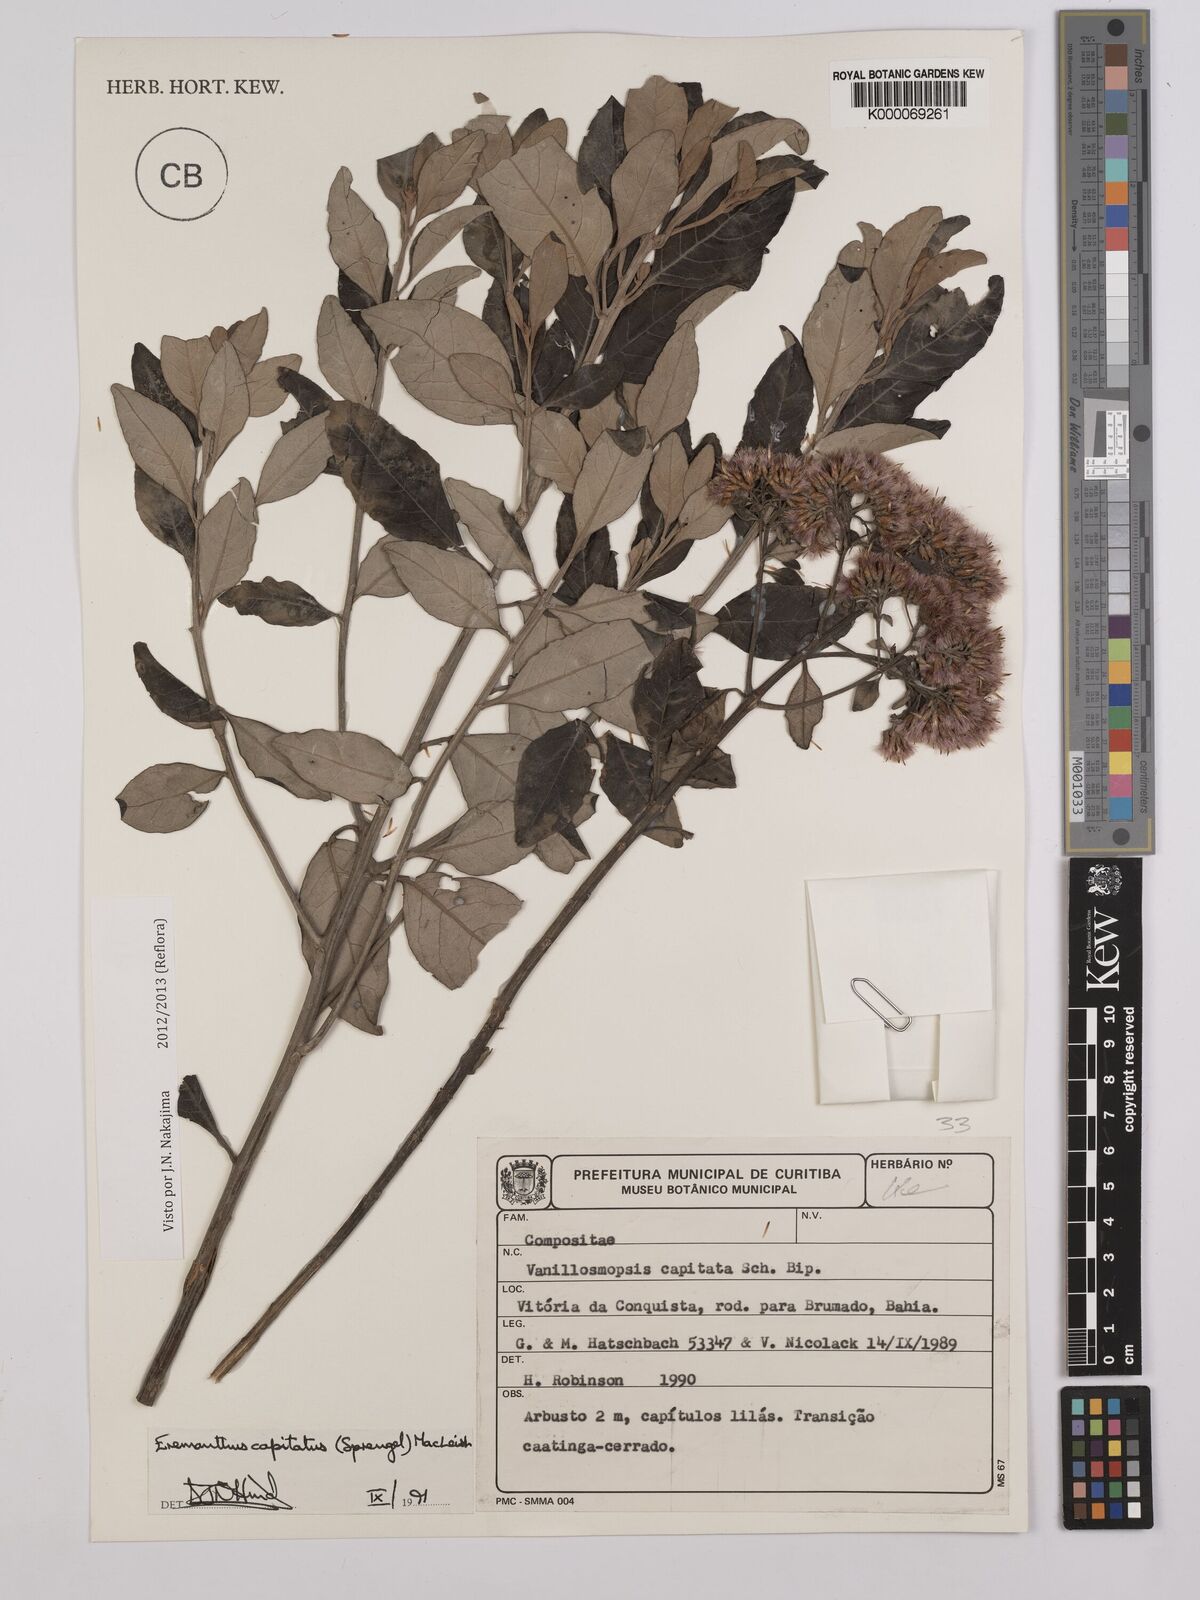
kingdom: Plantae
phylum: Tracheophyta
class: Magnoliopsida
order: Asterales
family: Asteraceae
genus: Eremanthus
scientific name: Eremanthus capitatus
